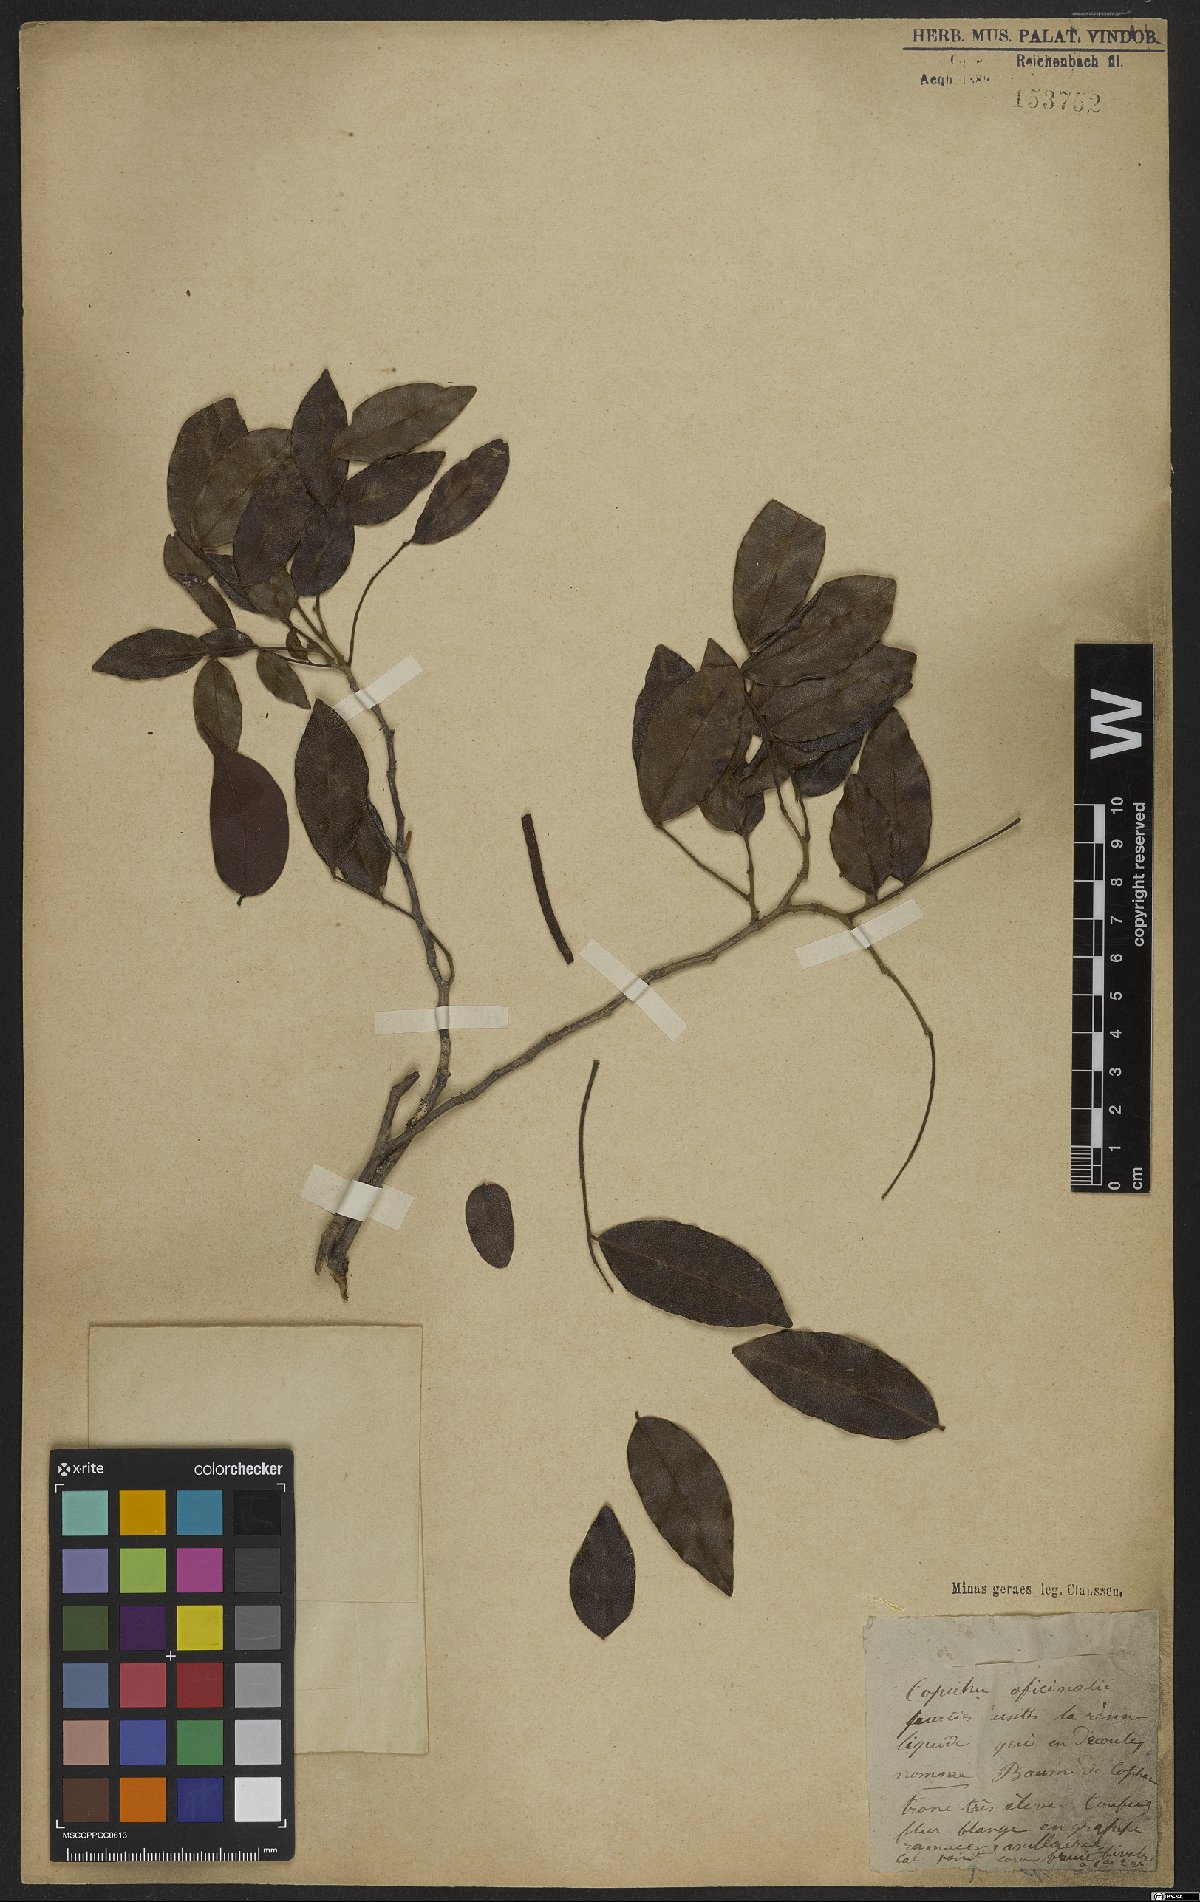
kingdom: Plantae
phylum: Tracheophyta
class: Magnoliopsida
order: Fabales
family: Fabaceae
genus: Copaifera
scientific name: Copaifera officinalis
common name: Copaiba
